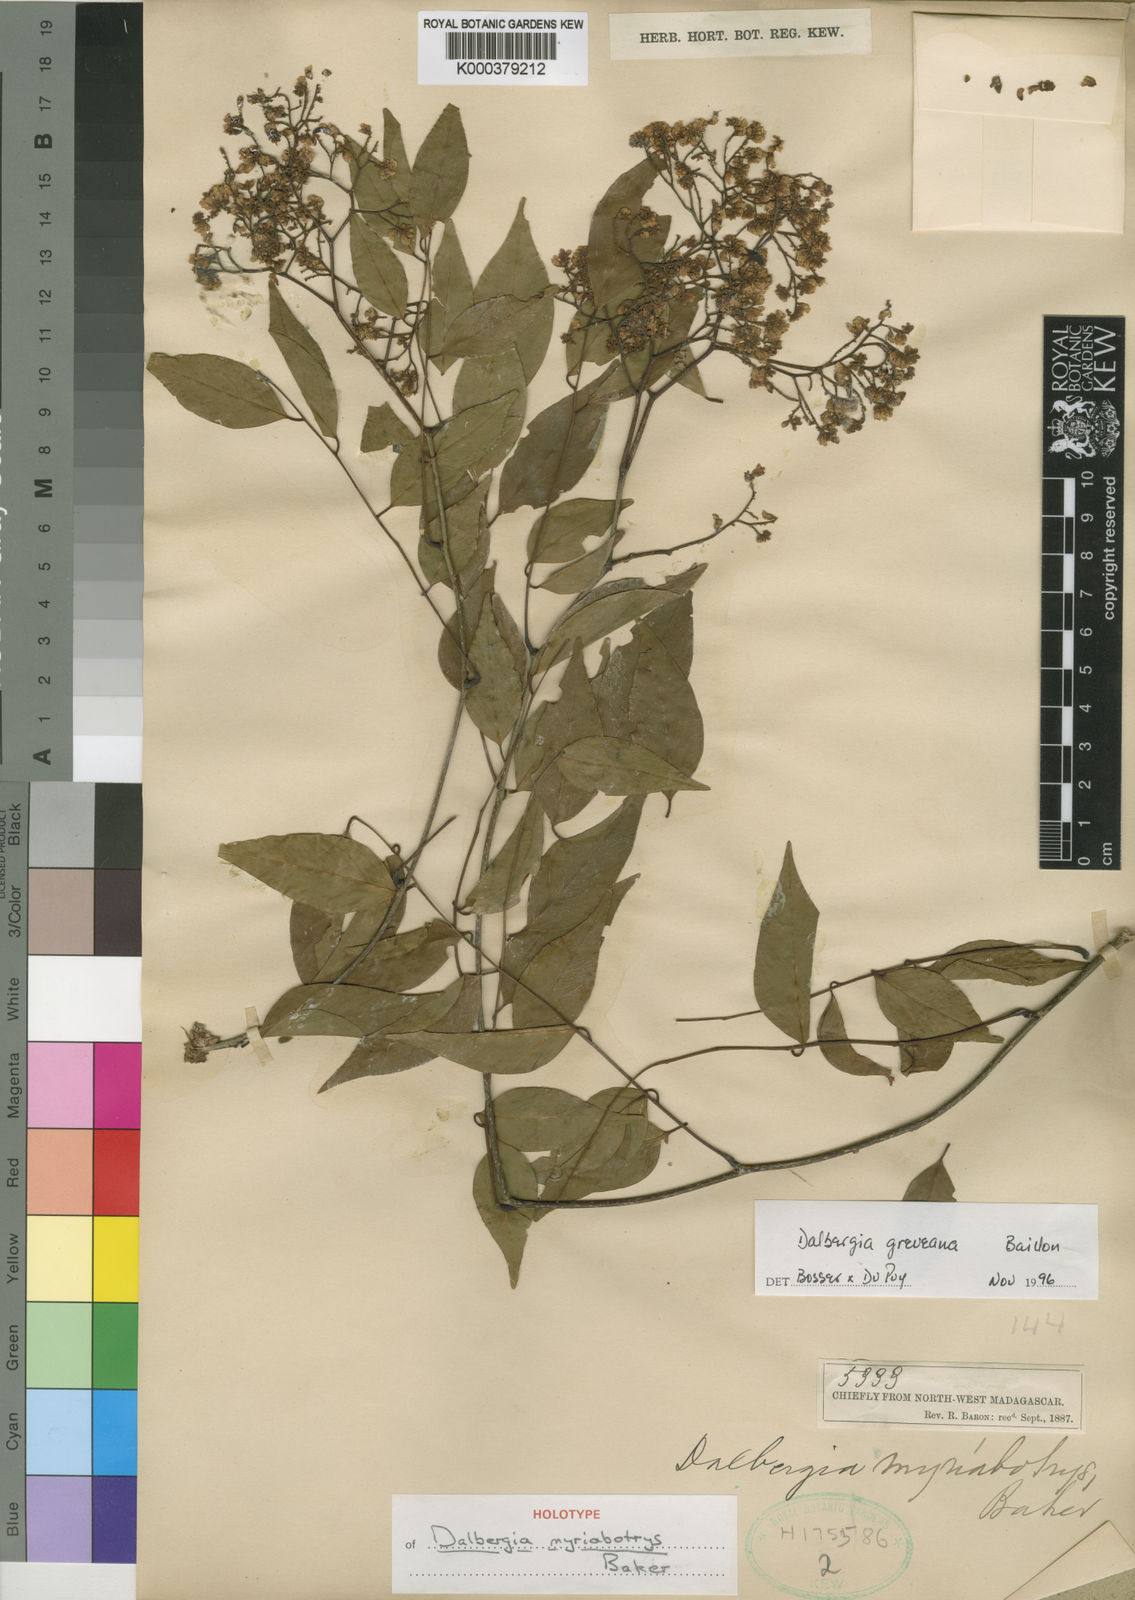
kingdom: Plantae
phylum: Tracheophyta
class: Magnoliopsida
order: Fabales
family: Fabaceae
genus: Dalbergia
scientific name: Dalbergia greveana
